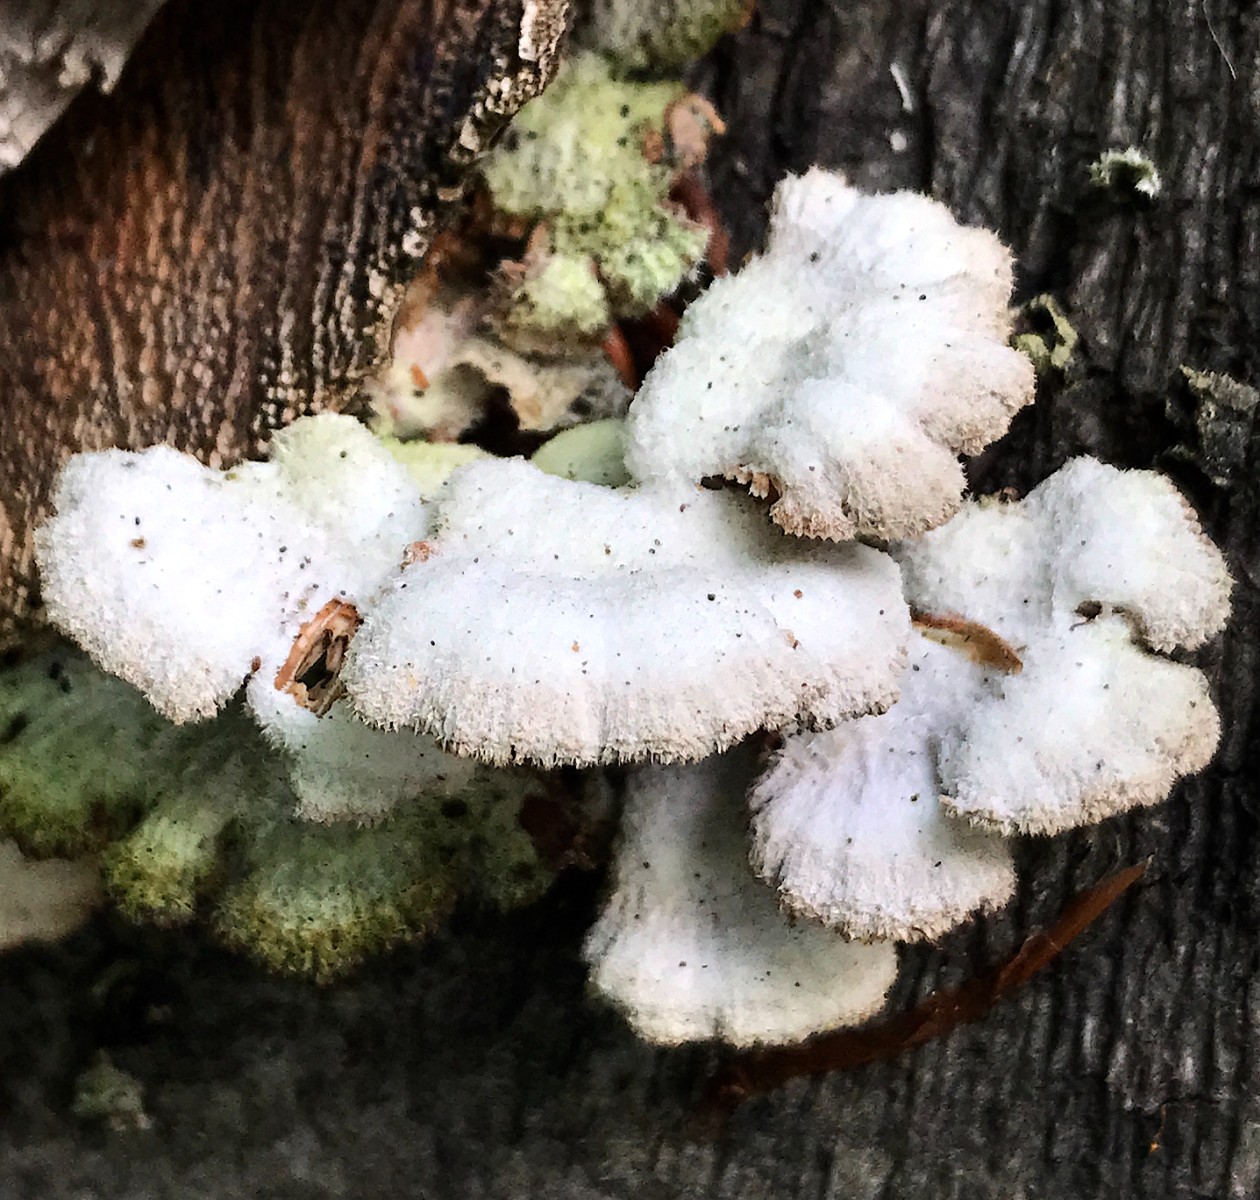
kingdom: Fungi
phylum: Basidiomycota
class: Agaricomycetes
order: Agaricales
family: Schizophyllaceae
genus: Schizophyllum
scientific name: Schizophyllum commune
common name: kløvblad
